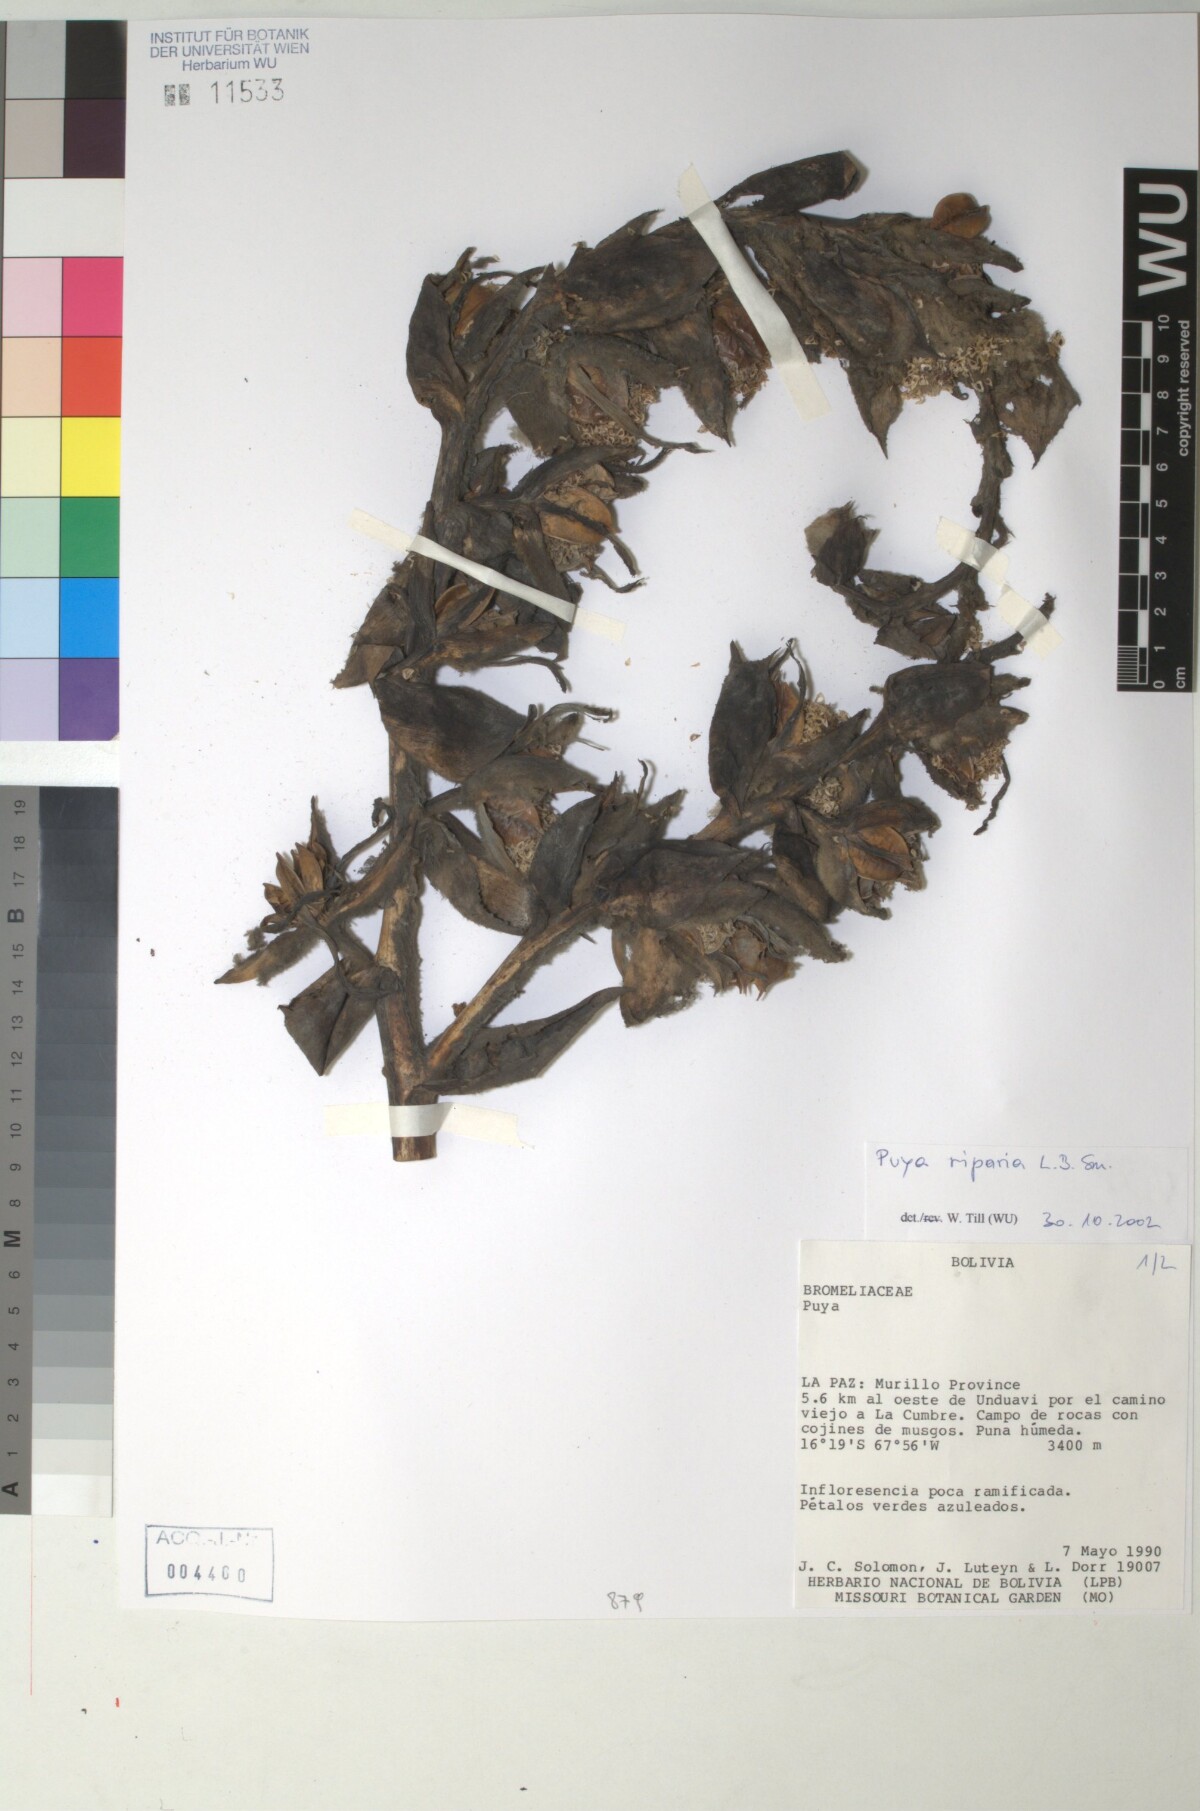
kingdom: Plantae
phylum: Tracheophyta
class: Liliopsida
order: Poales
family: Bromeliaceae
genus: Puya
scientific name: Puya riparia
